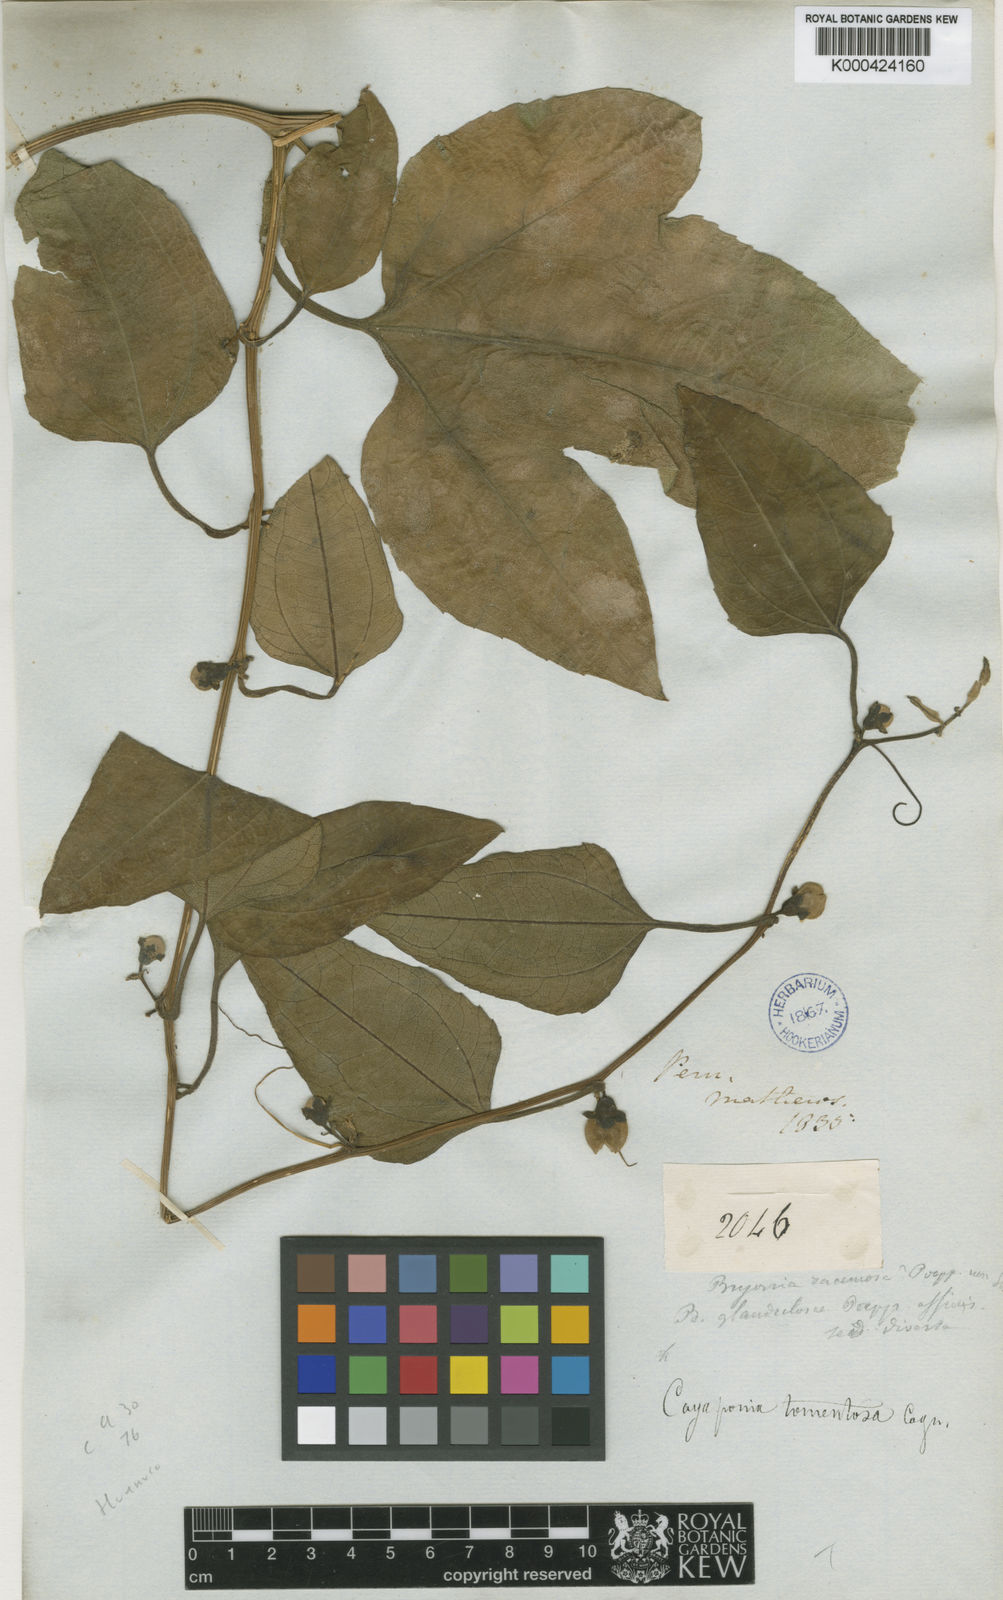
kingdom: Plantae
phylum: Tracheophyta
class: Magnoliopsida
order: Cucurbitales
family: Cucurbitaceae
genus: Cayaponia
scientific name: Cayaponia glandulosa
